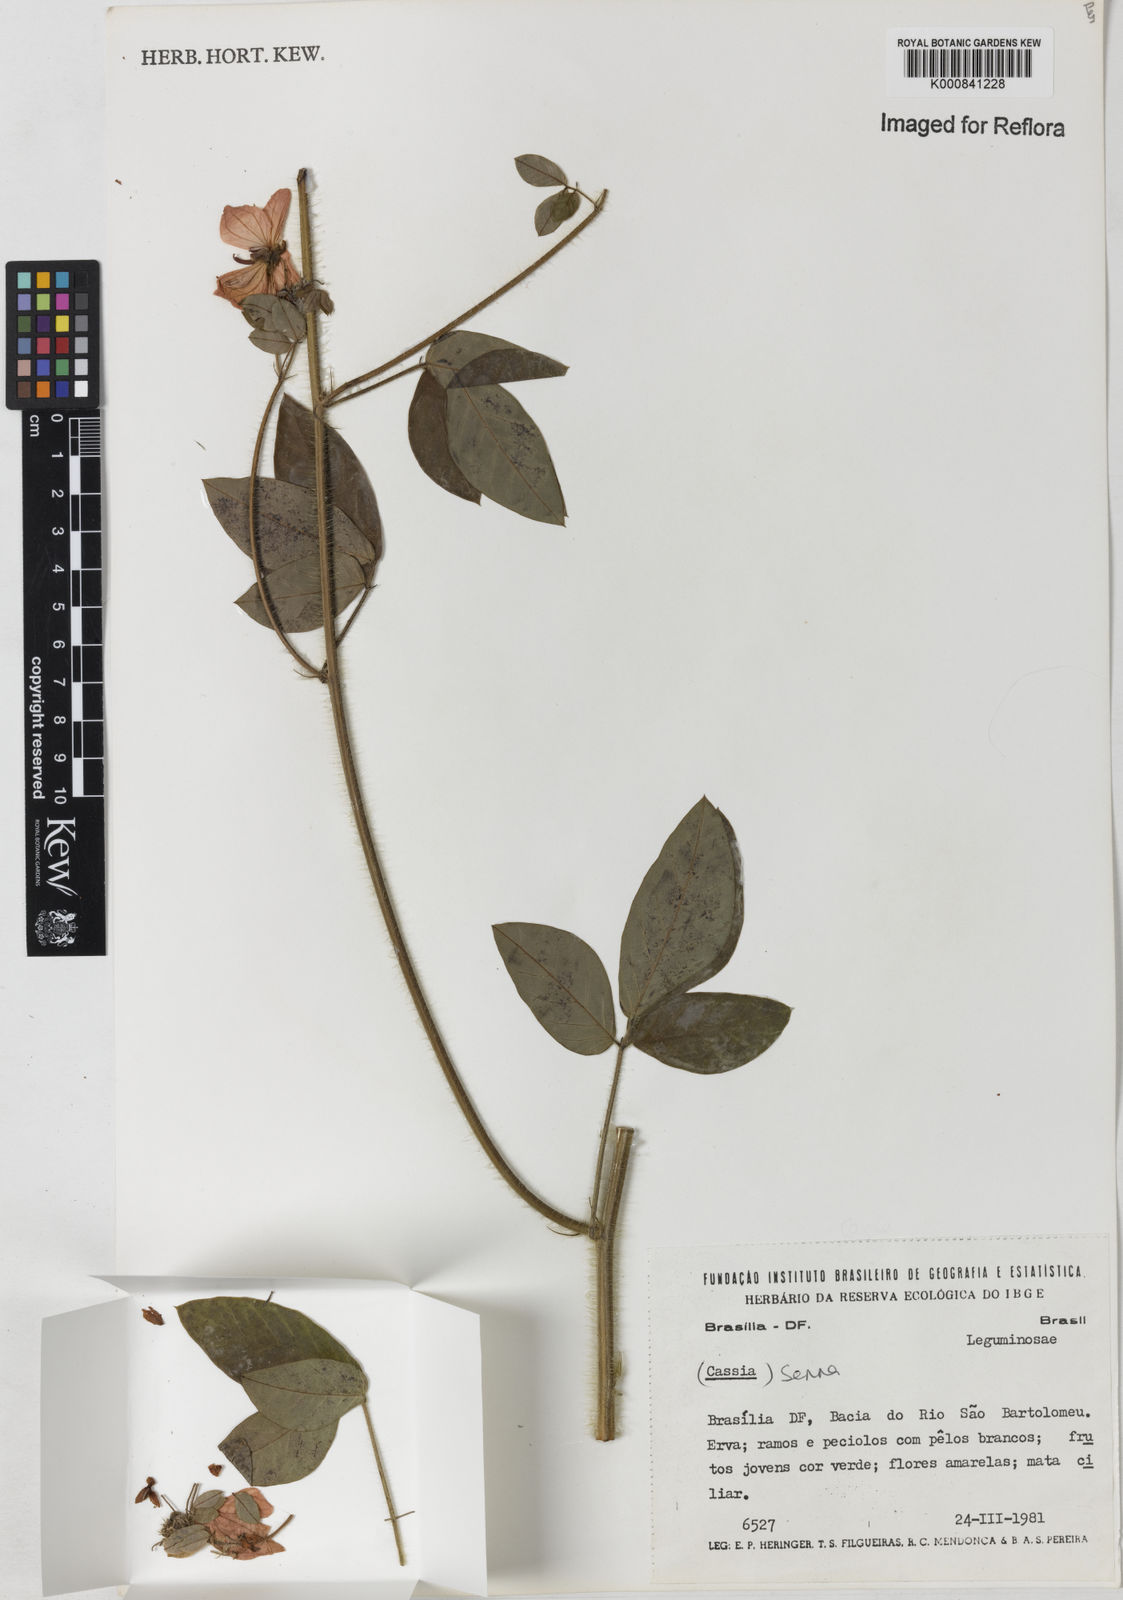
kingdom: Plantae
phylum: Tracheophyta
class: Magnoliopsida
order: Fabales
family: Fabaceae
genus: Senna
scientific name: Senna
